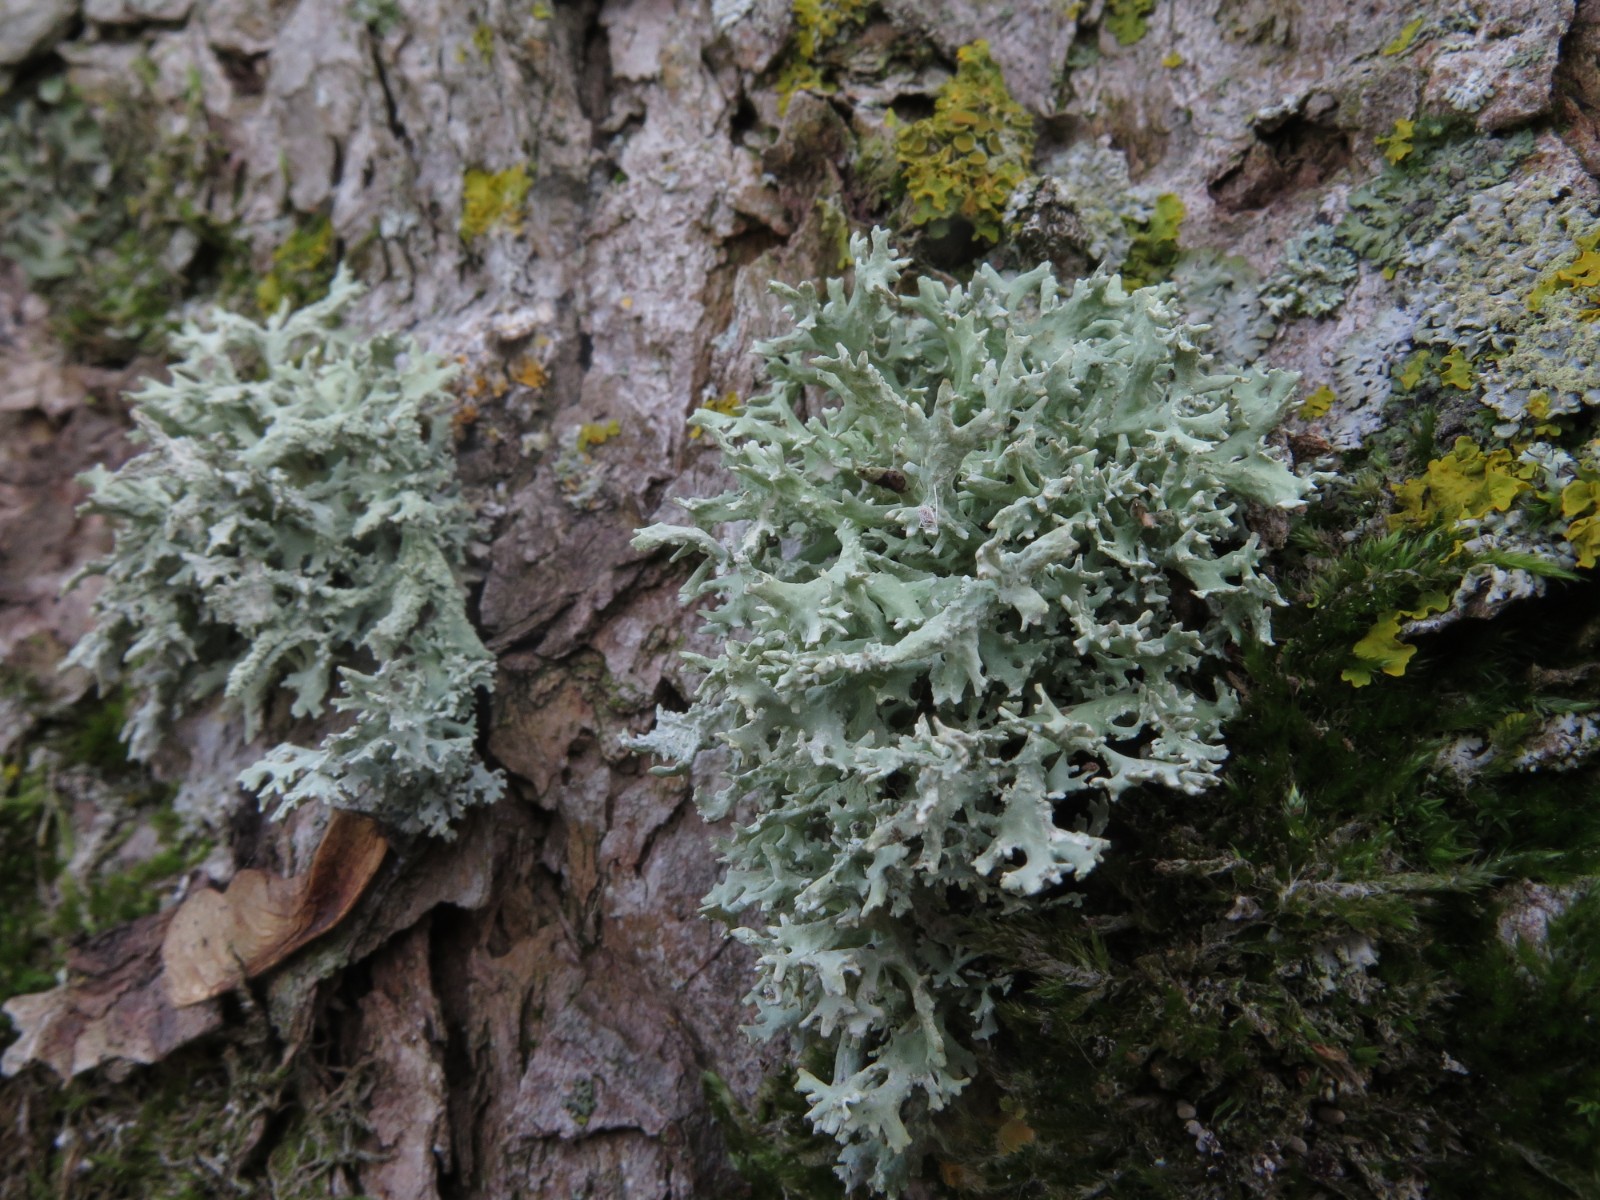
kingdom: Fungi
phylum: Ascomycota
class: Lecanoromycetes
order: Lecanorales
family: Parmeliaceae
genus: Evernia
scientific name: Evernia prunastri
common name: almindelig slåenlav
